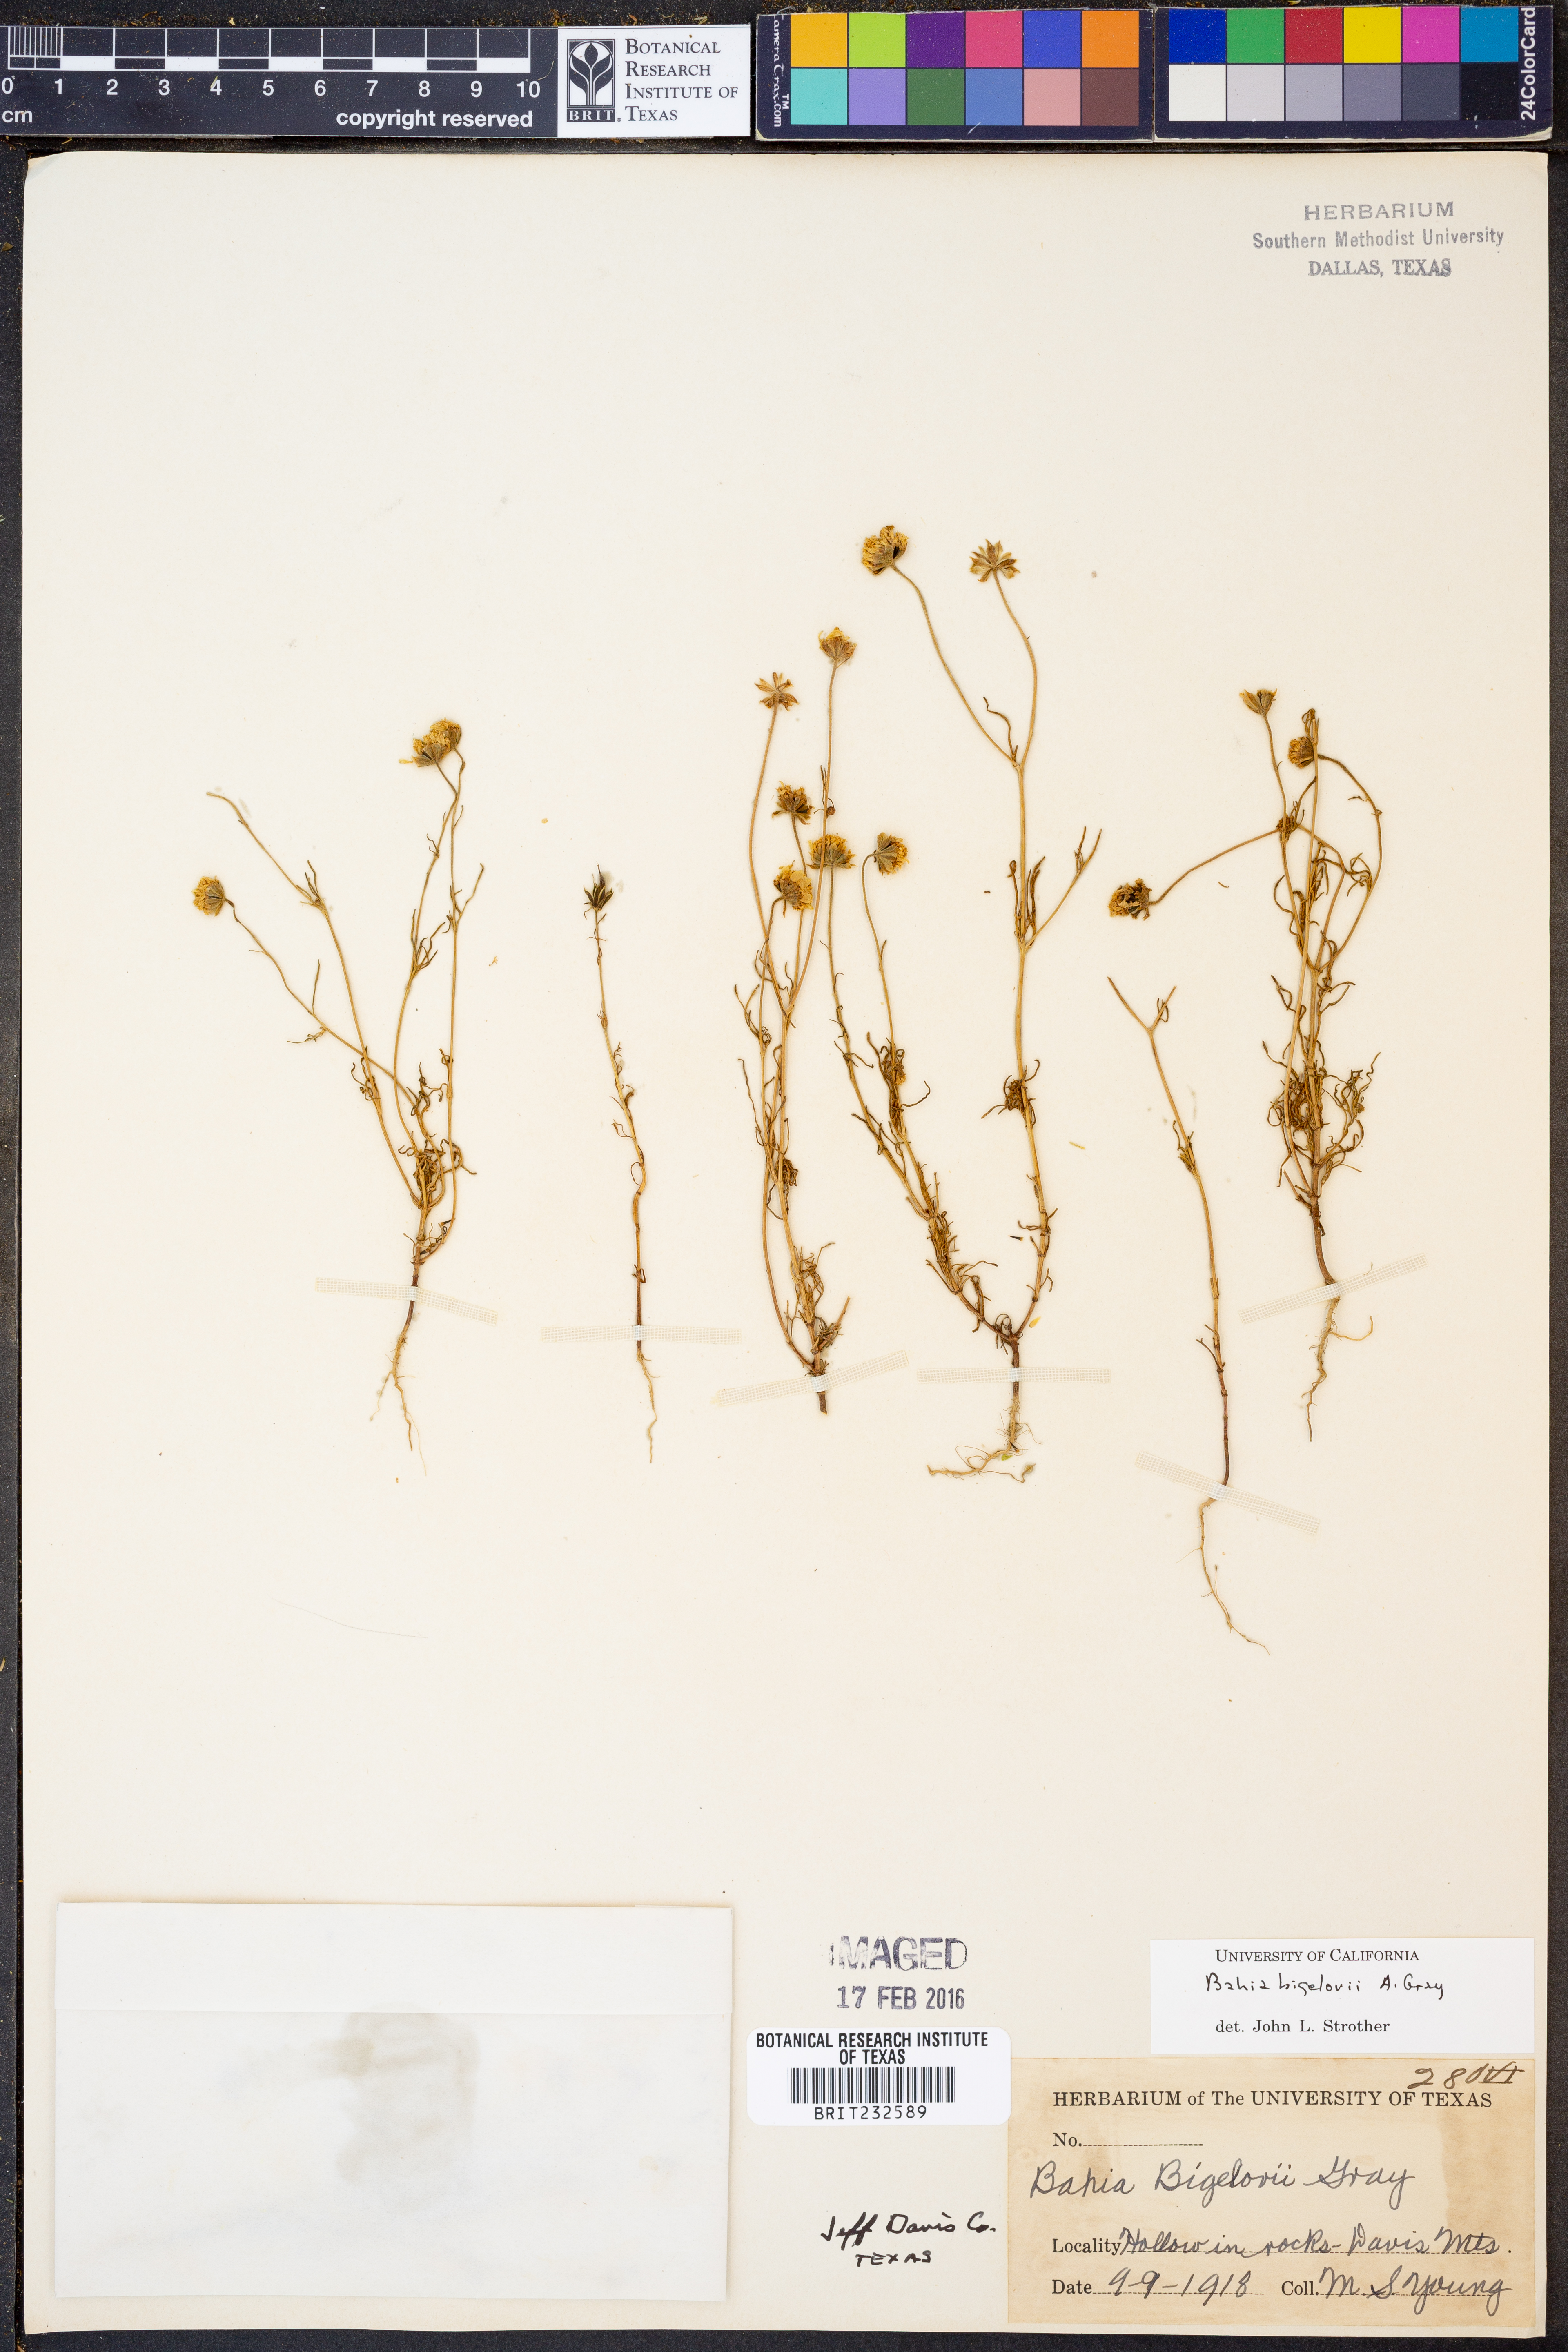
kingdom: Plantae
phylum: Tracheophyta
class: Magnoliopsida
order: Asterales
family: Asteraceae
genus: Picradeniopsis
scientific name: Picradeniopsis bigelovii
